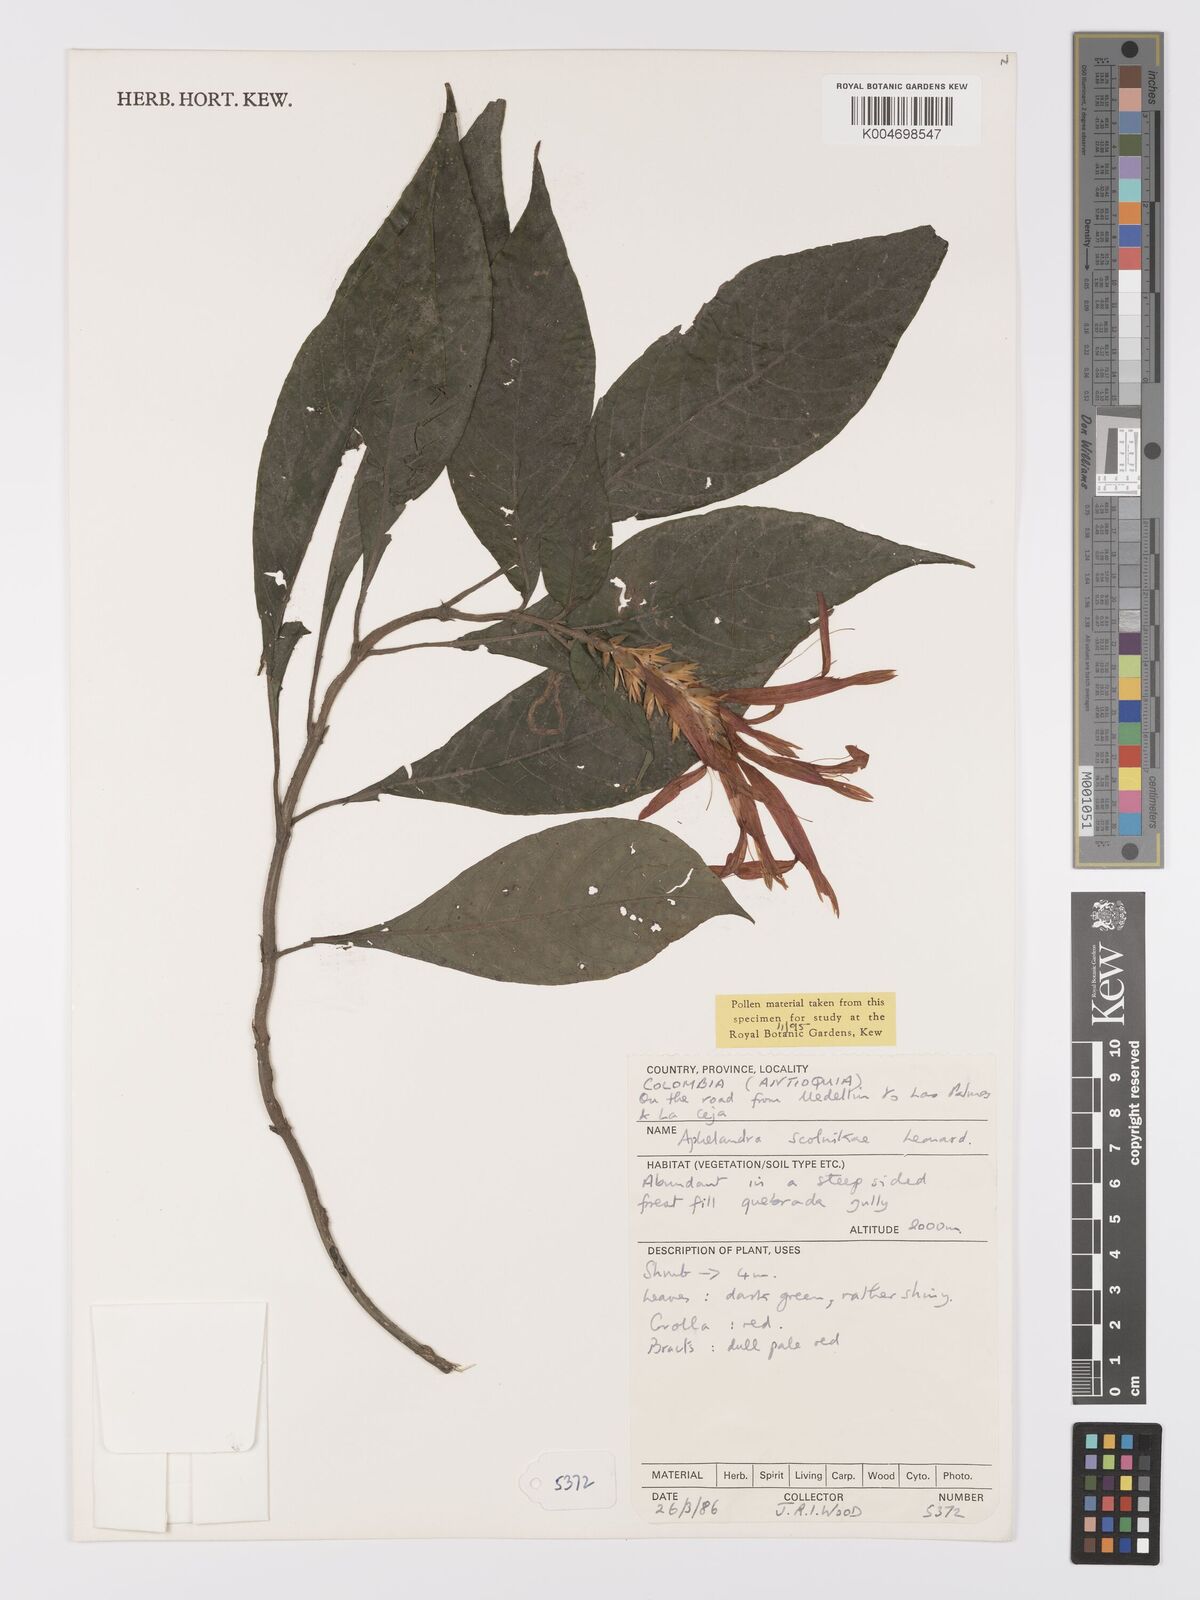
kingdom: Plantae
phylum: Tracheophyta
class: Magnoliopsida
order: Lamiales
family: Acanthaceae
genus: Aphelandra
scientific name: Aphelandra scolnikiae
